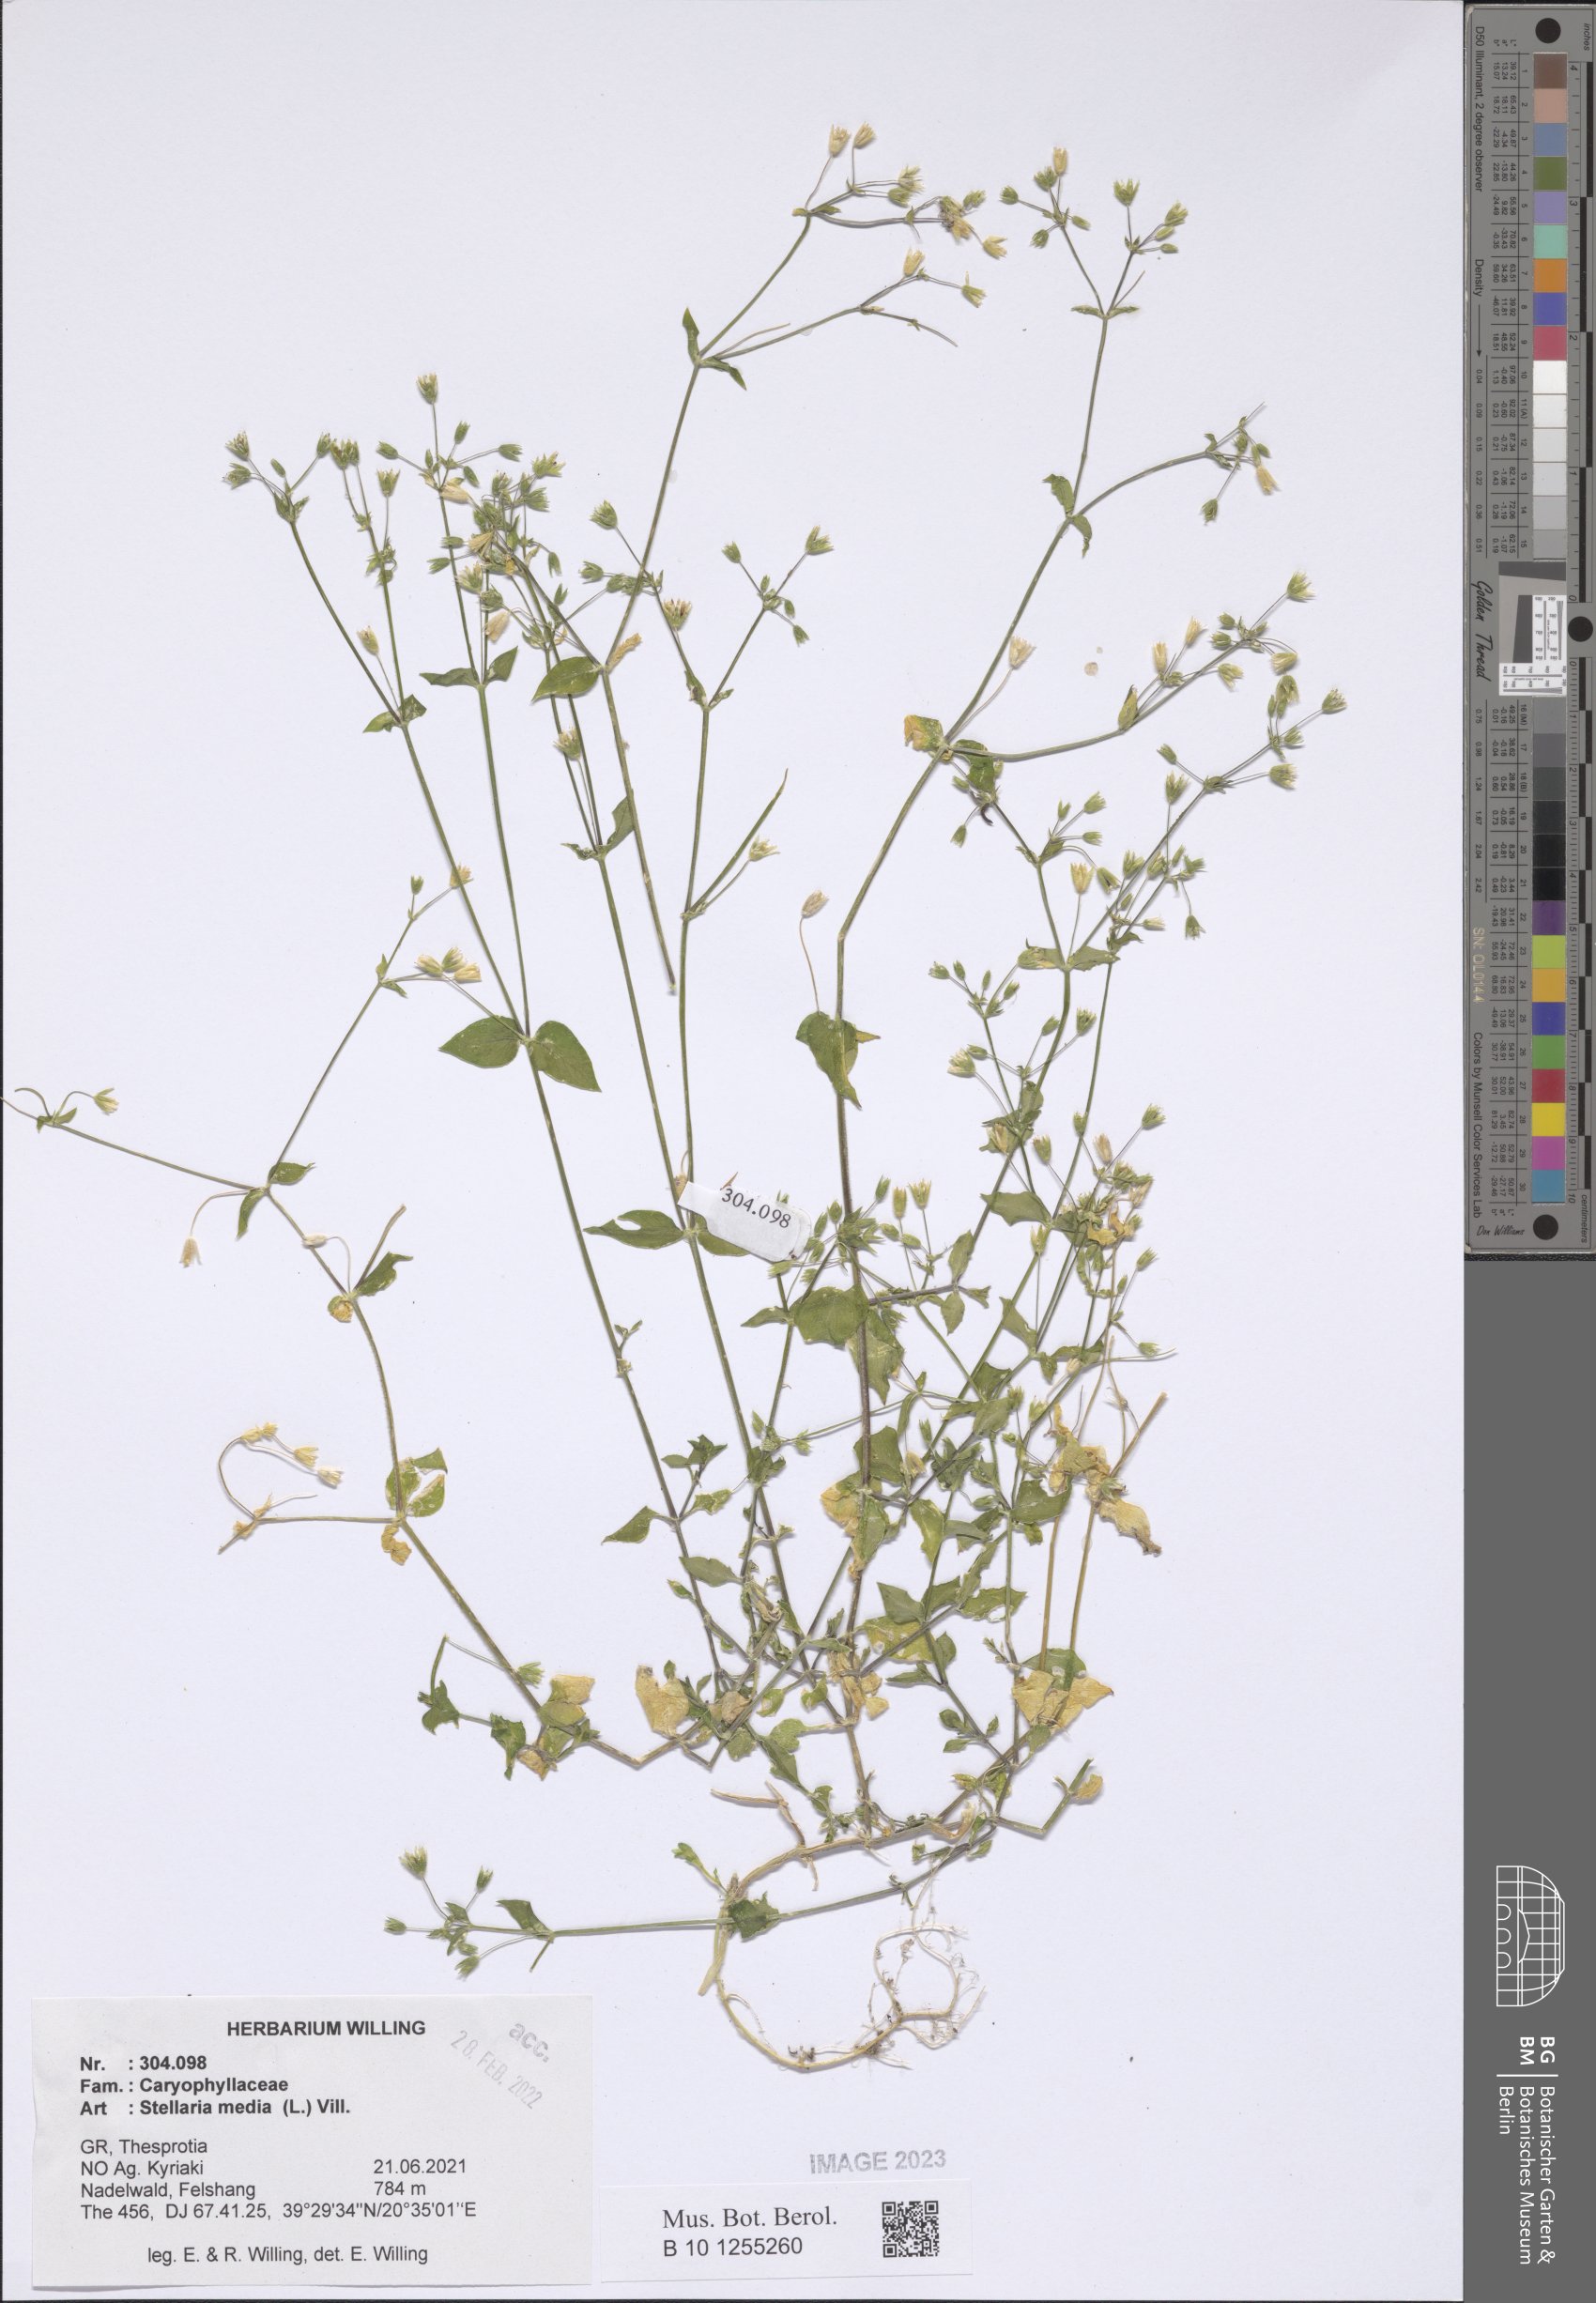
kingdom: Plantae
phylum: Tracheophyta
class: Magnoliopsida
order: Caryophyllales
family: Caryophyllaceae
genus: Stellaria
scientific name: Stellaria media
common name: Common chickweed
